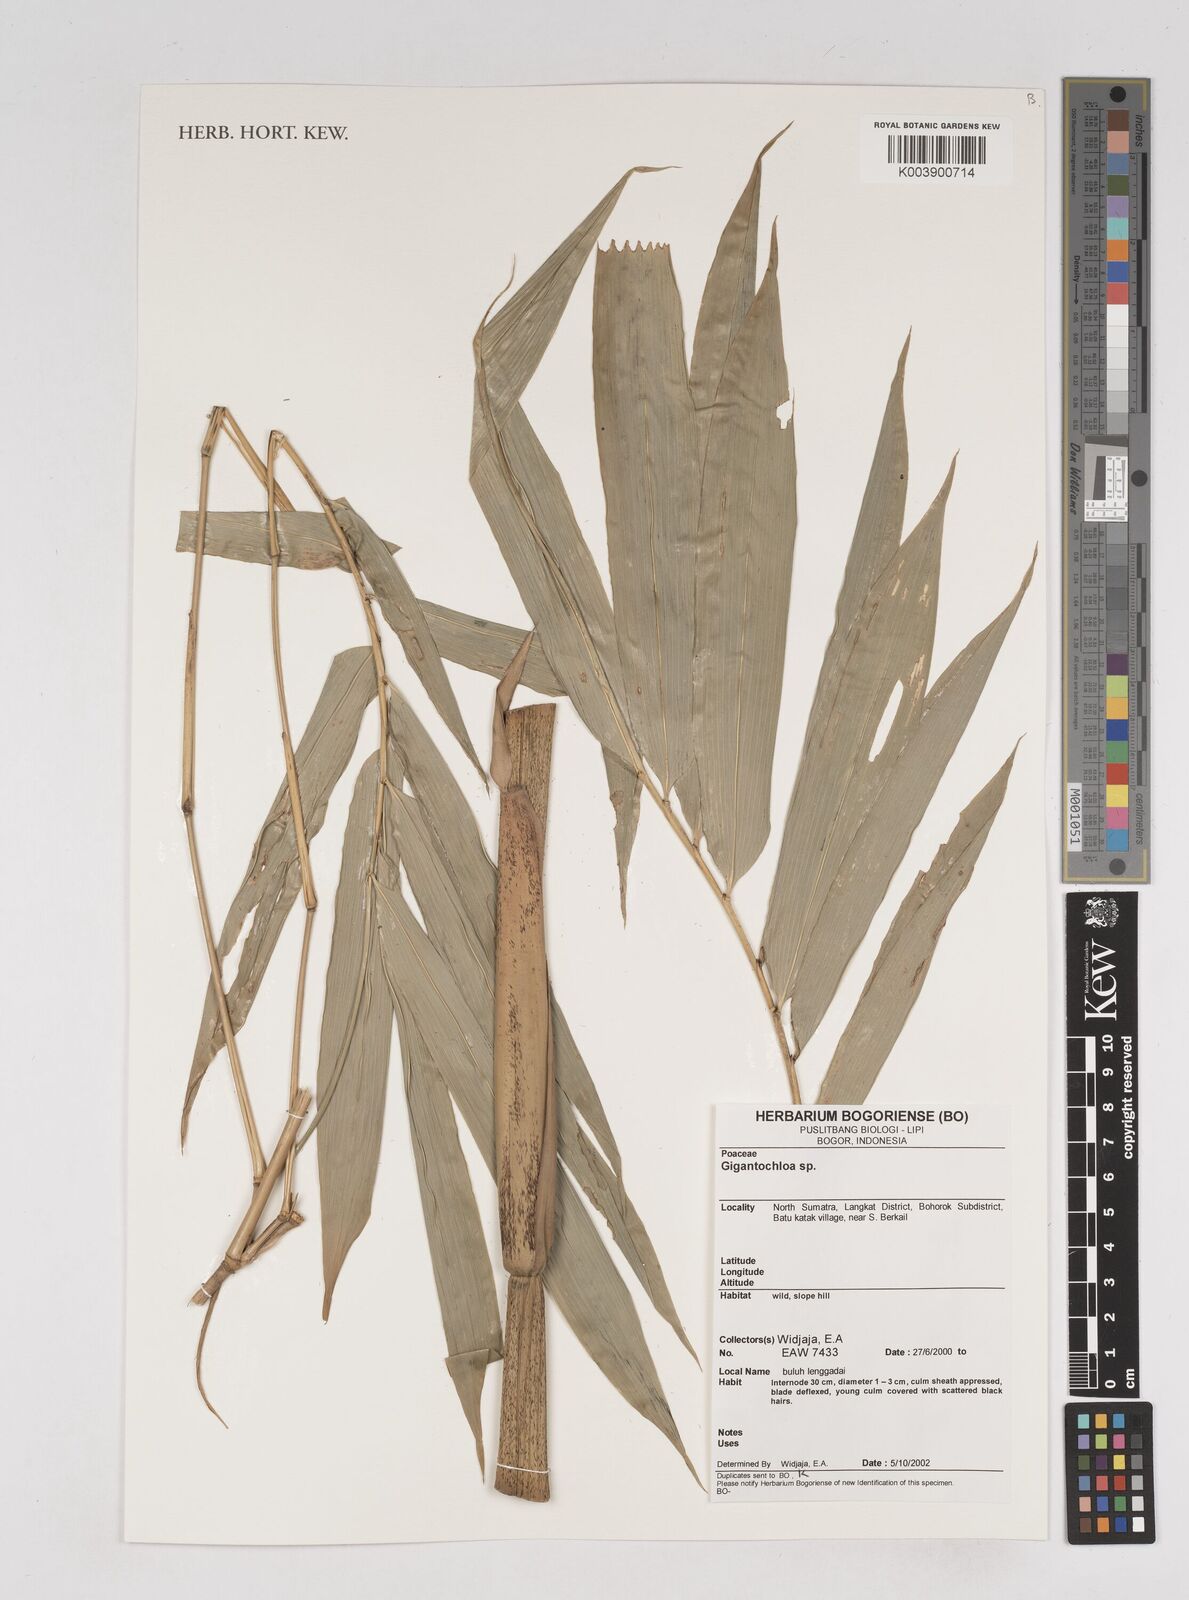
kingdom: Plantae
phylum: Tracheophyta
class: Liliopsida
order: Poales
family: Poaceae
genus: Gigantochloa
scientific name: Gigantochloa
